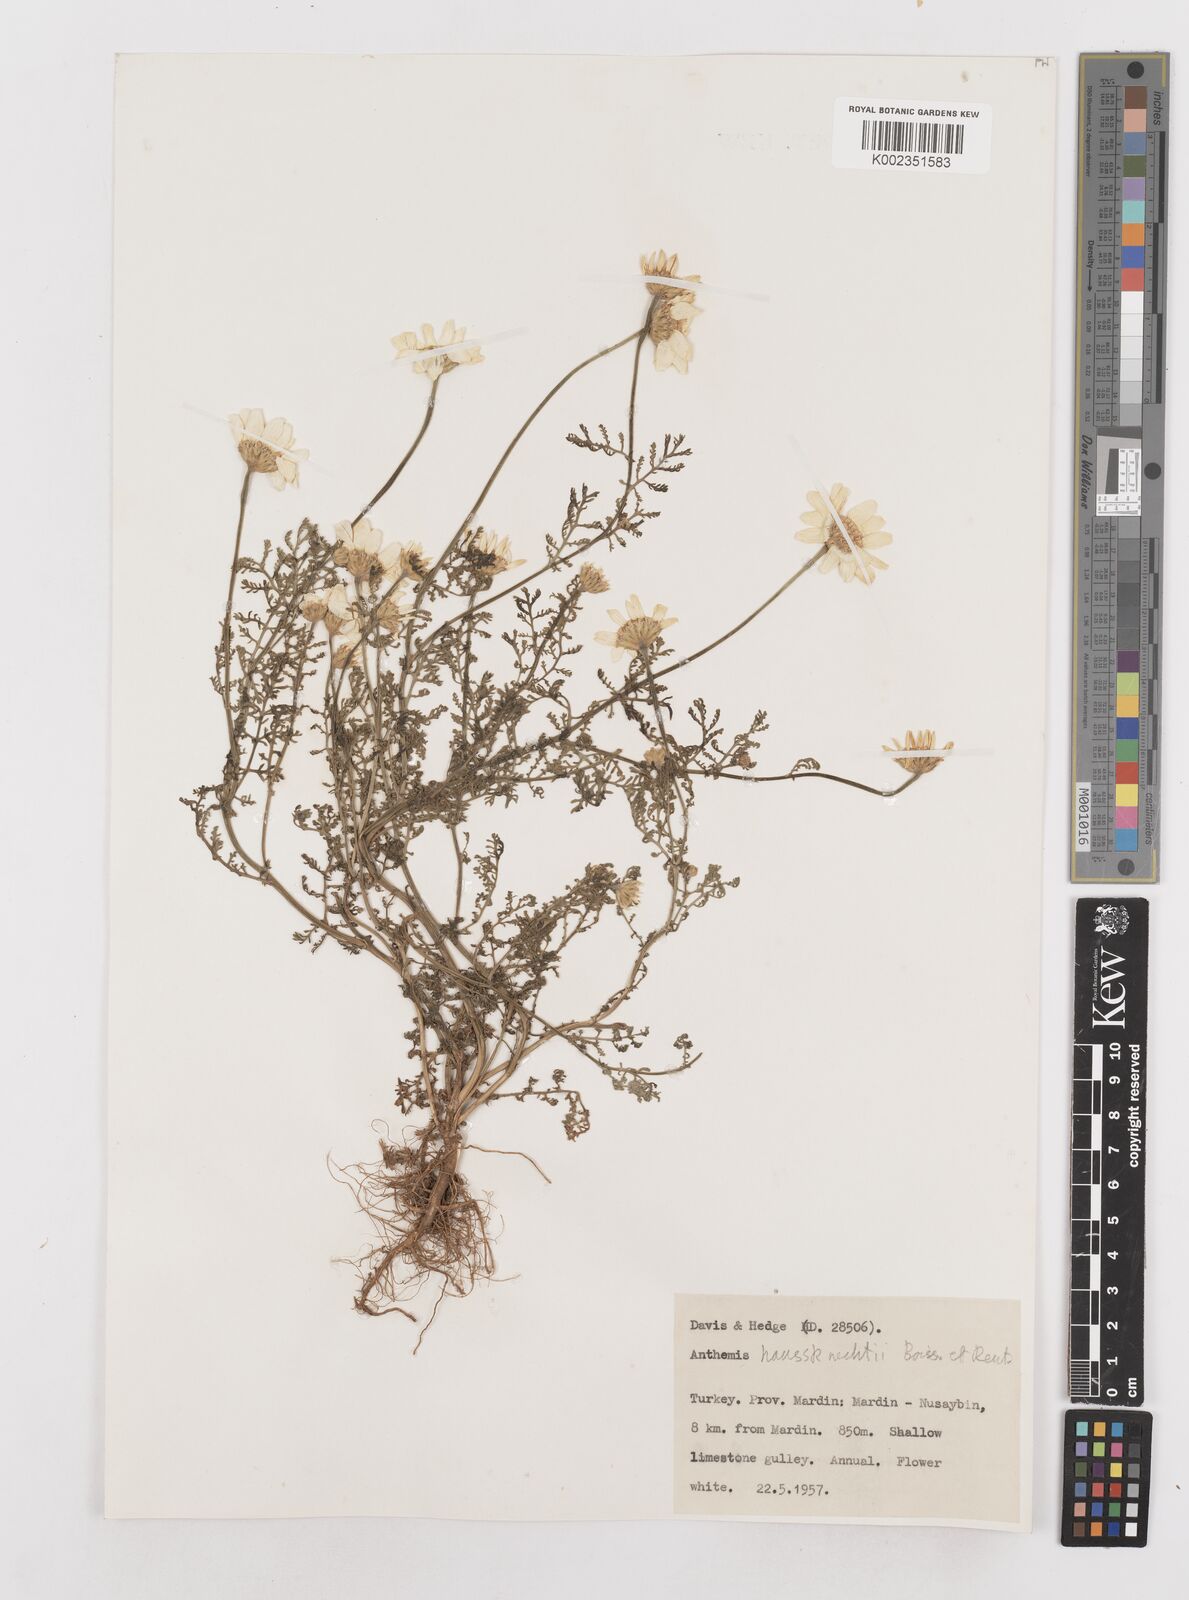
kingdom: Plantae
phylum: Tracheophyta
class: Magnoliopsida
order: Asterales
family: Asteraceae
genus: Anthemis
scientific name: Anthemis haussknechtii
